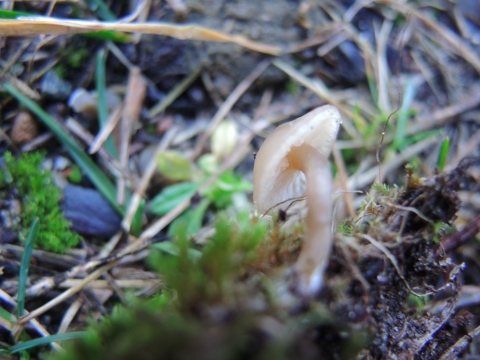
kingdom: Fungi
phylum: Basidiomycota
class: Agaricomycetes
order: Agaricales
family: Tricholomataceae
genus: Clitocybe
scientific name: Clitocybe fragrans
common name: vellugtende tragthat
